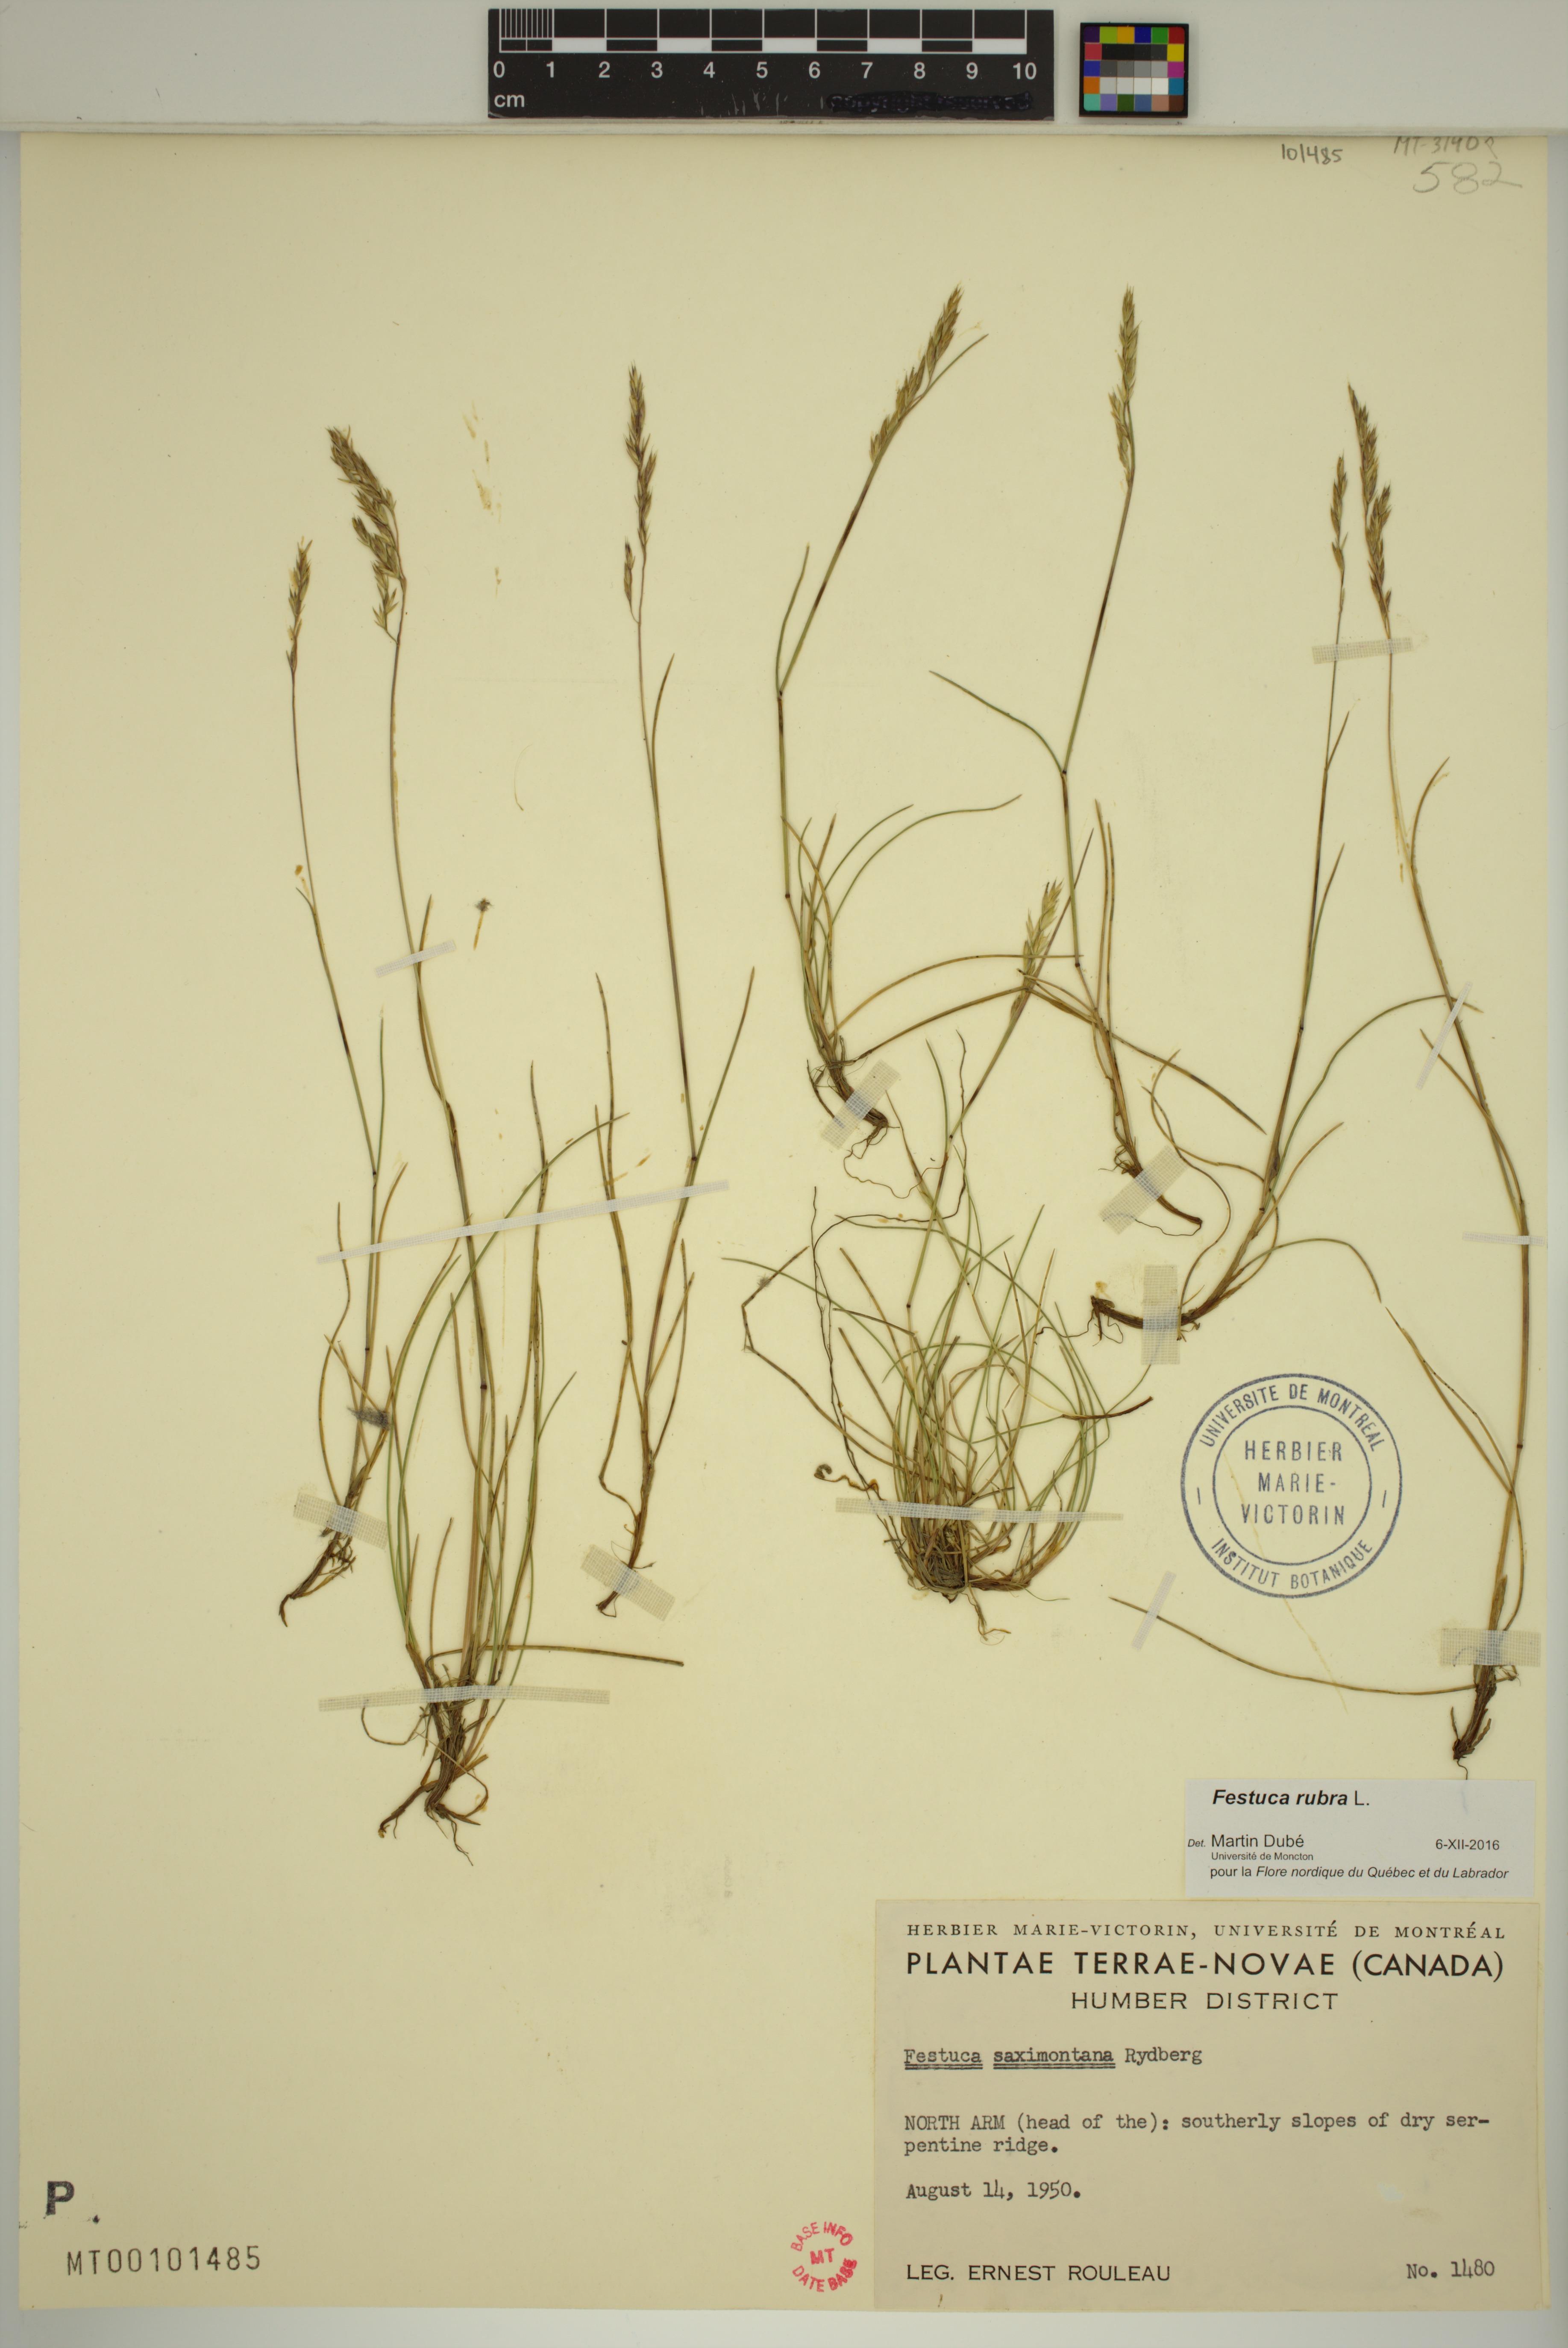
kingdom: Plantae
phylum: Tracheophyta
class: Liliopsida
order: Poales
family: Poaceae
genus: Festuca
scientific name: Festuca rubra
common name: Red fescue
